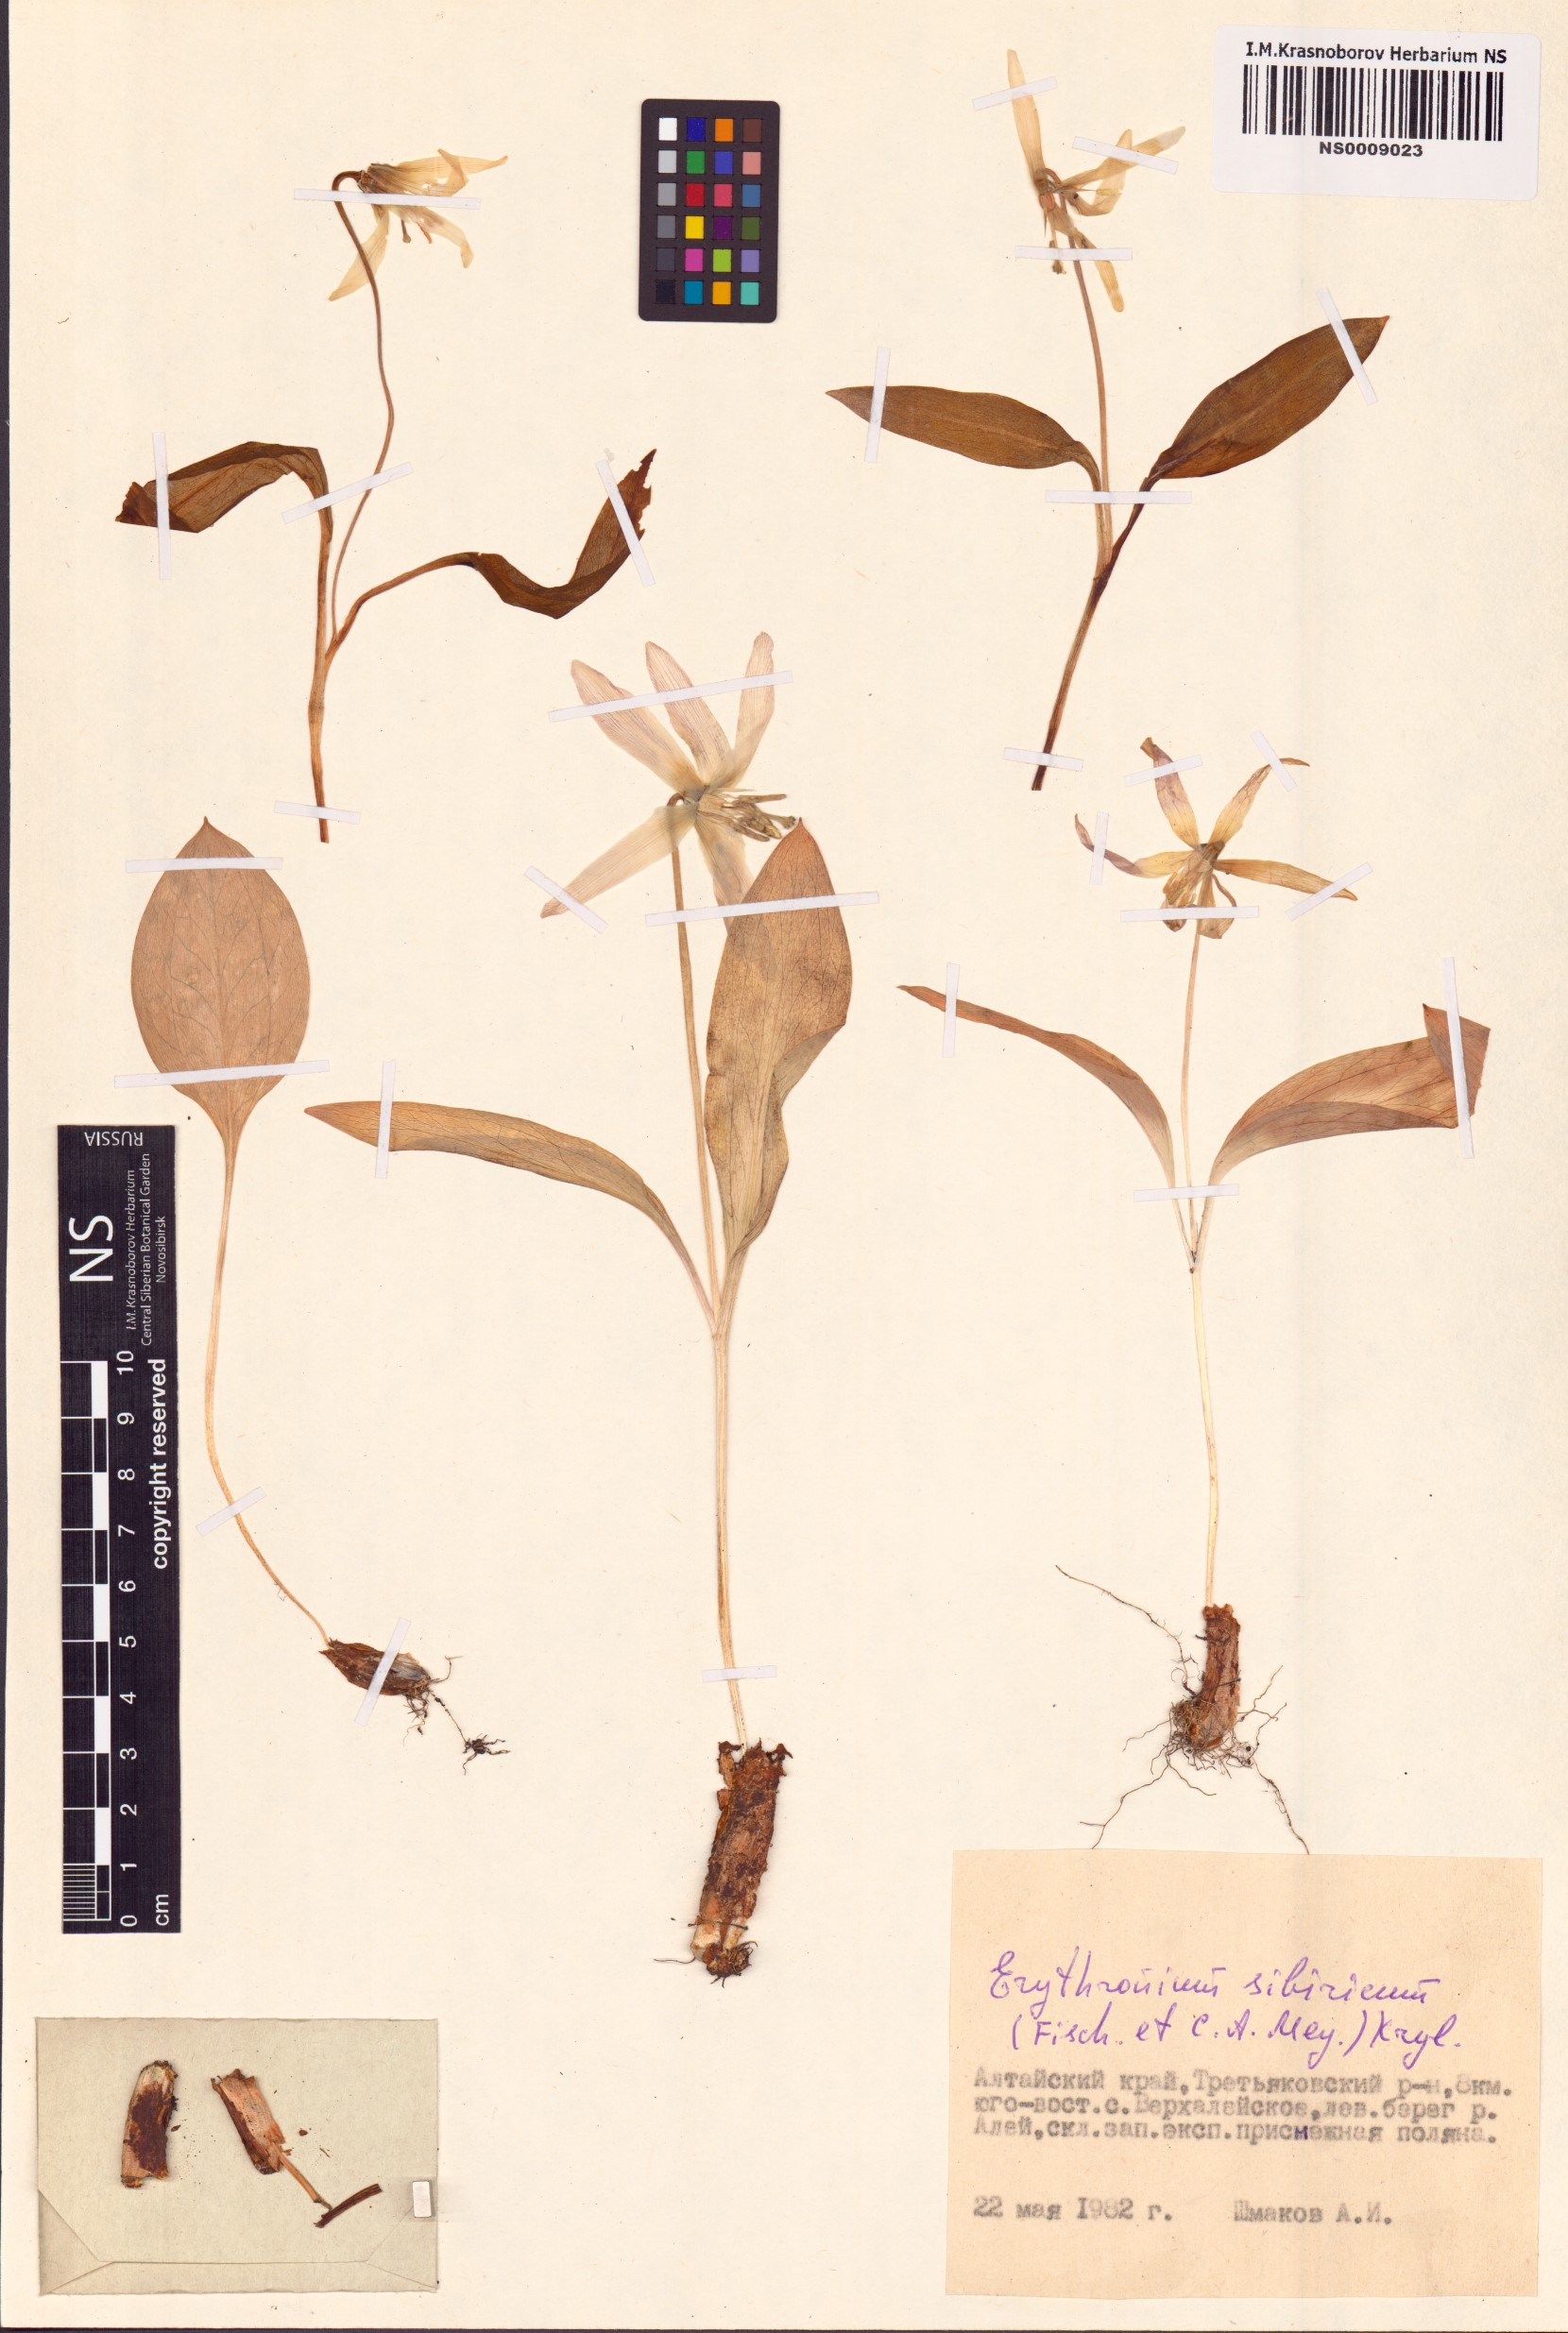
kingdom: Plantae
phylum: Tracheophyta
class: Liliopsida
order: Liliales
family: Liliaceae
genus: Erythronium
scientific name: Erythronium sibiricum
